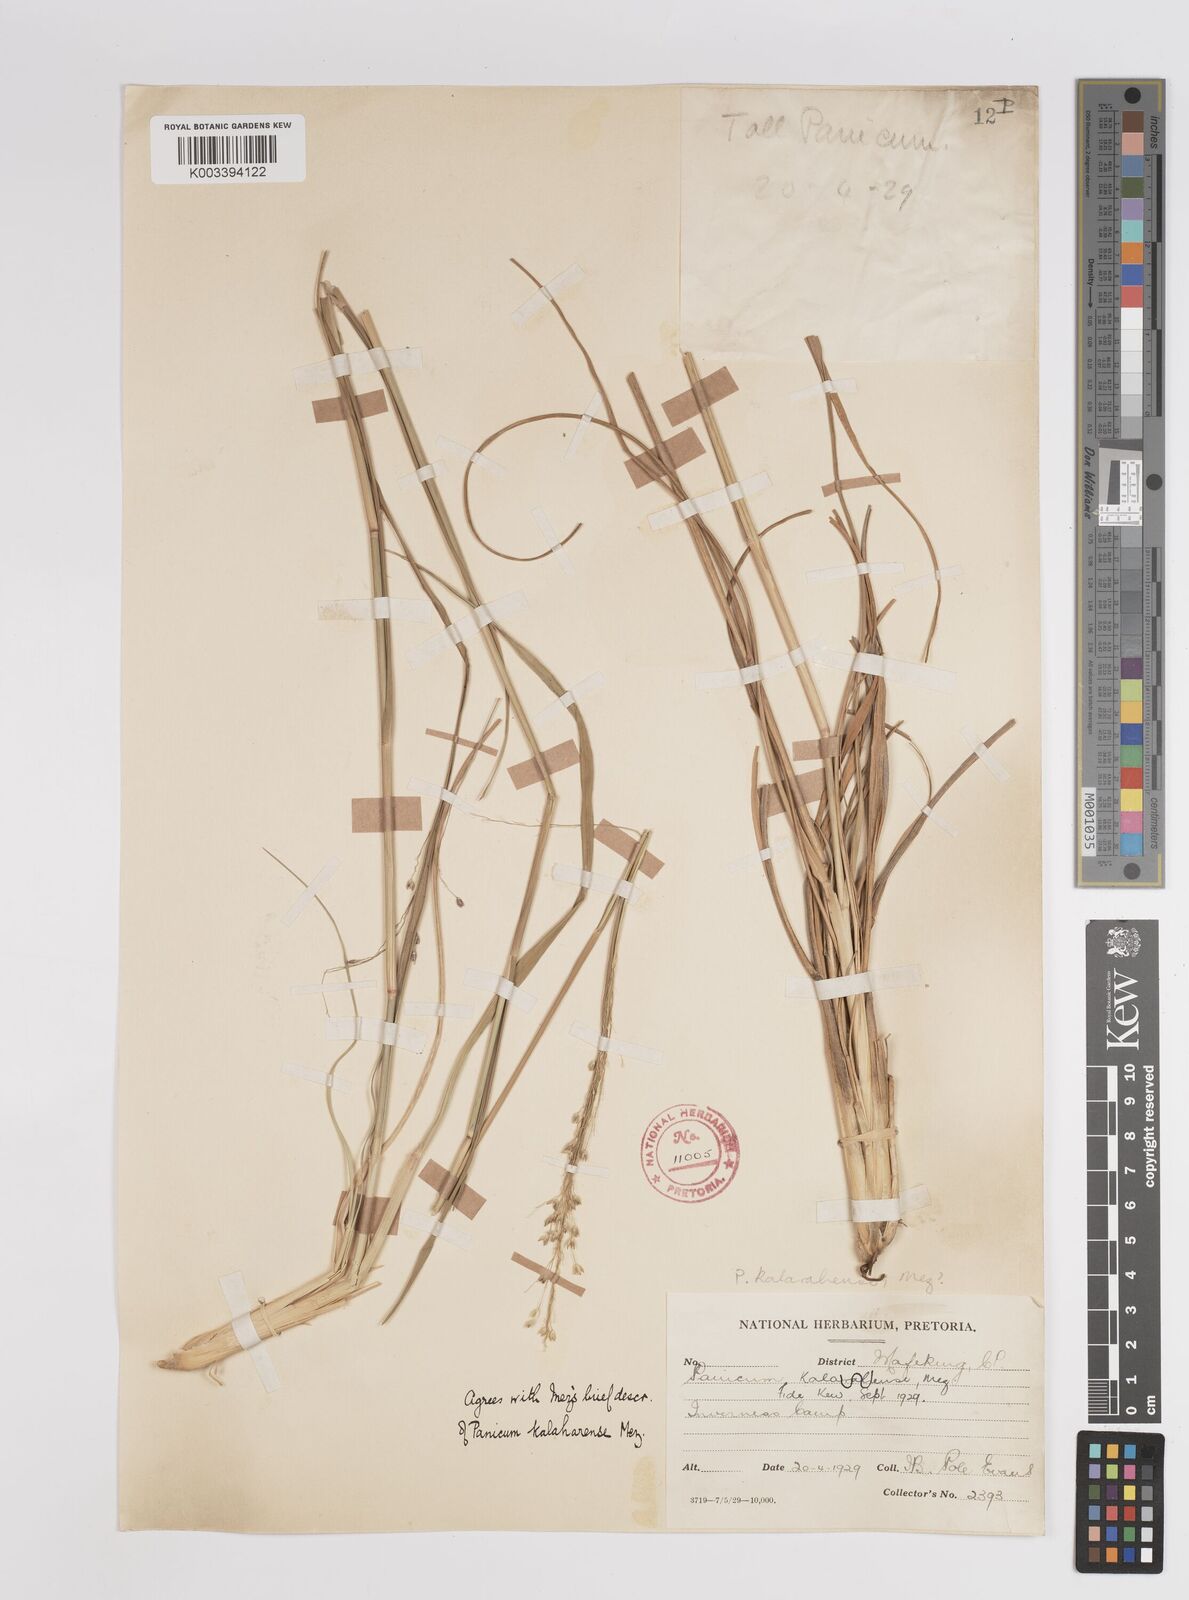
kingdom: Plantae
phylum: Tracheophyta
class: Liliopsida
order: Poales
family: Poaceae
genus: Panicum
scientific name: Panicum kalaharense
